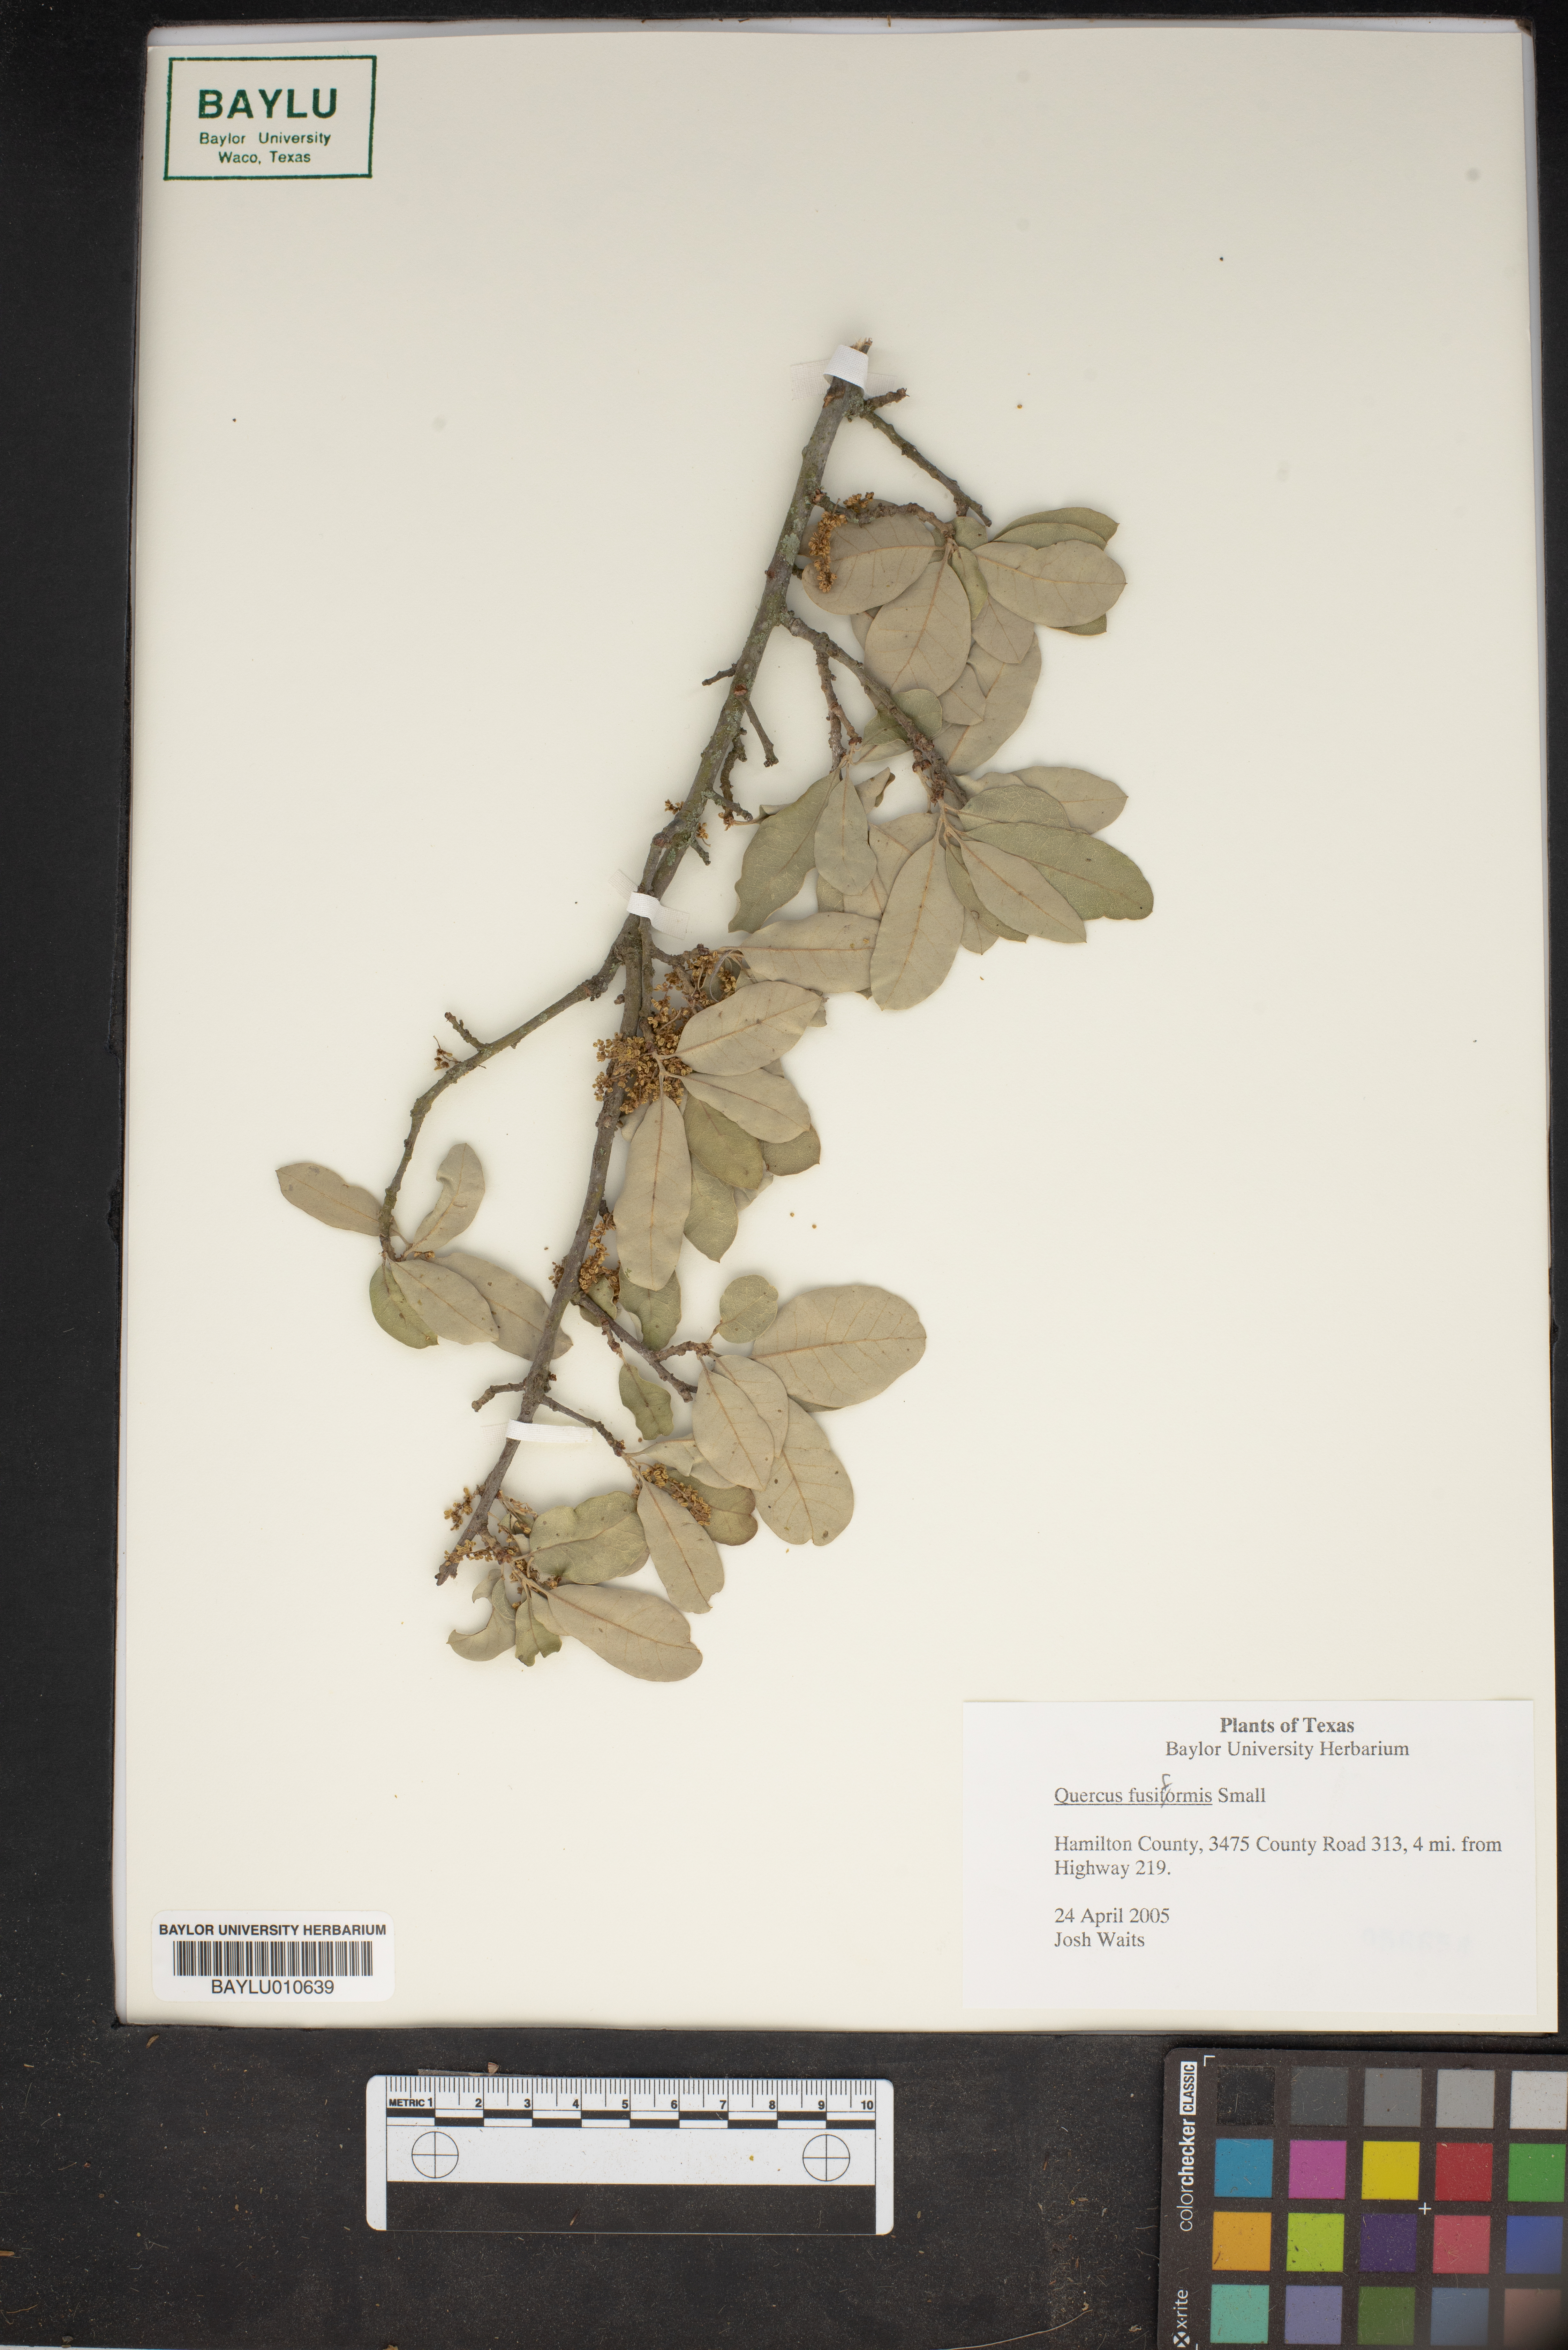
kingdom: Plantae
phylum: Tracheophyta
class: Magnoliopsida
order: Fagales
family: Fagaceae
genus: Quercus
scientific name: Quercus fusiformis
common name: Texas live oak
